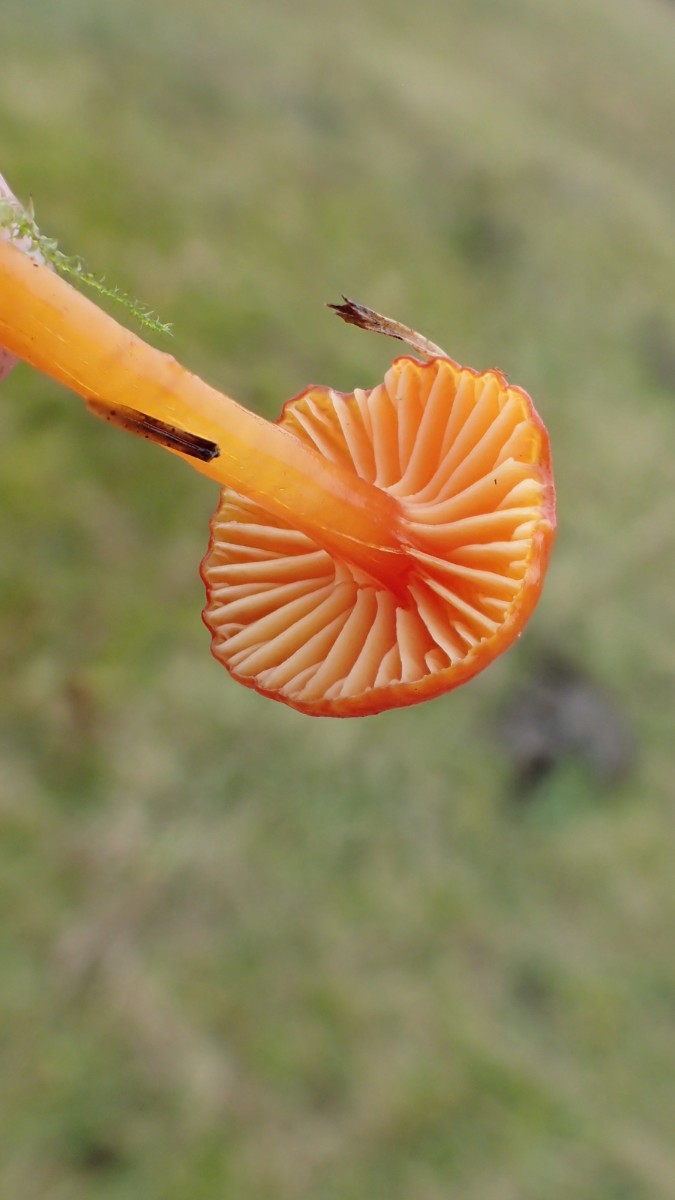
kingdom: Fungi
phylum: Basidiomycota
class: Agaricomycetes
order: Agaricales
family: Hygrophoraceae
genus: Hygrocybe
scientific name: Hygrocybe insipida
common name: liden vokshat
